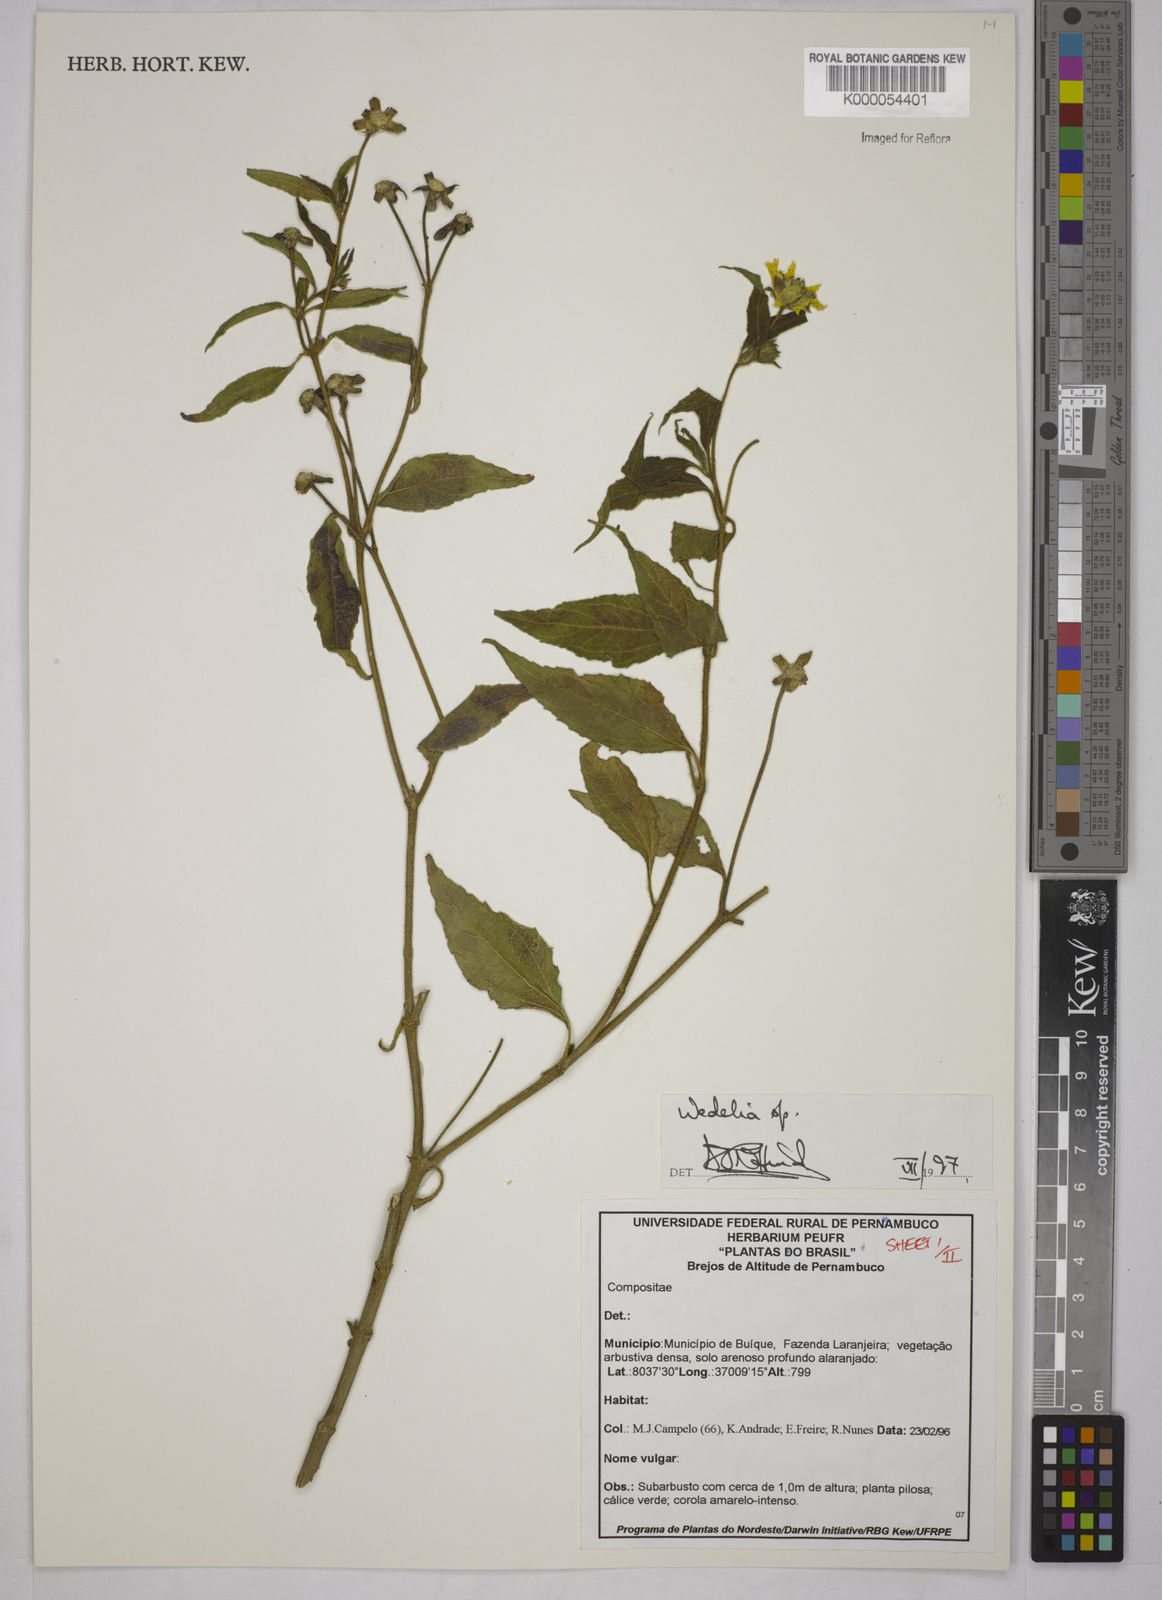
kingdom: Plantae
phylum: Tracheophyta
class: Magnoliopsida
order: Asterales
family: Asteraceae
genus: Wedelia
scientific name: Wedelia
